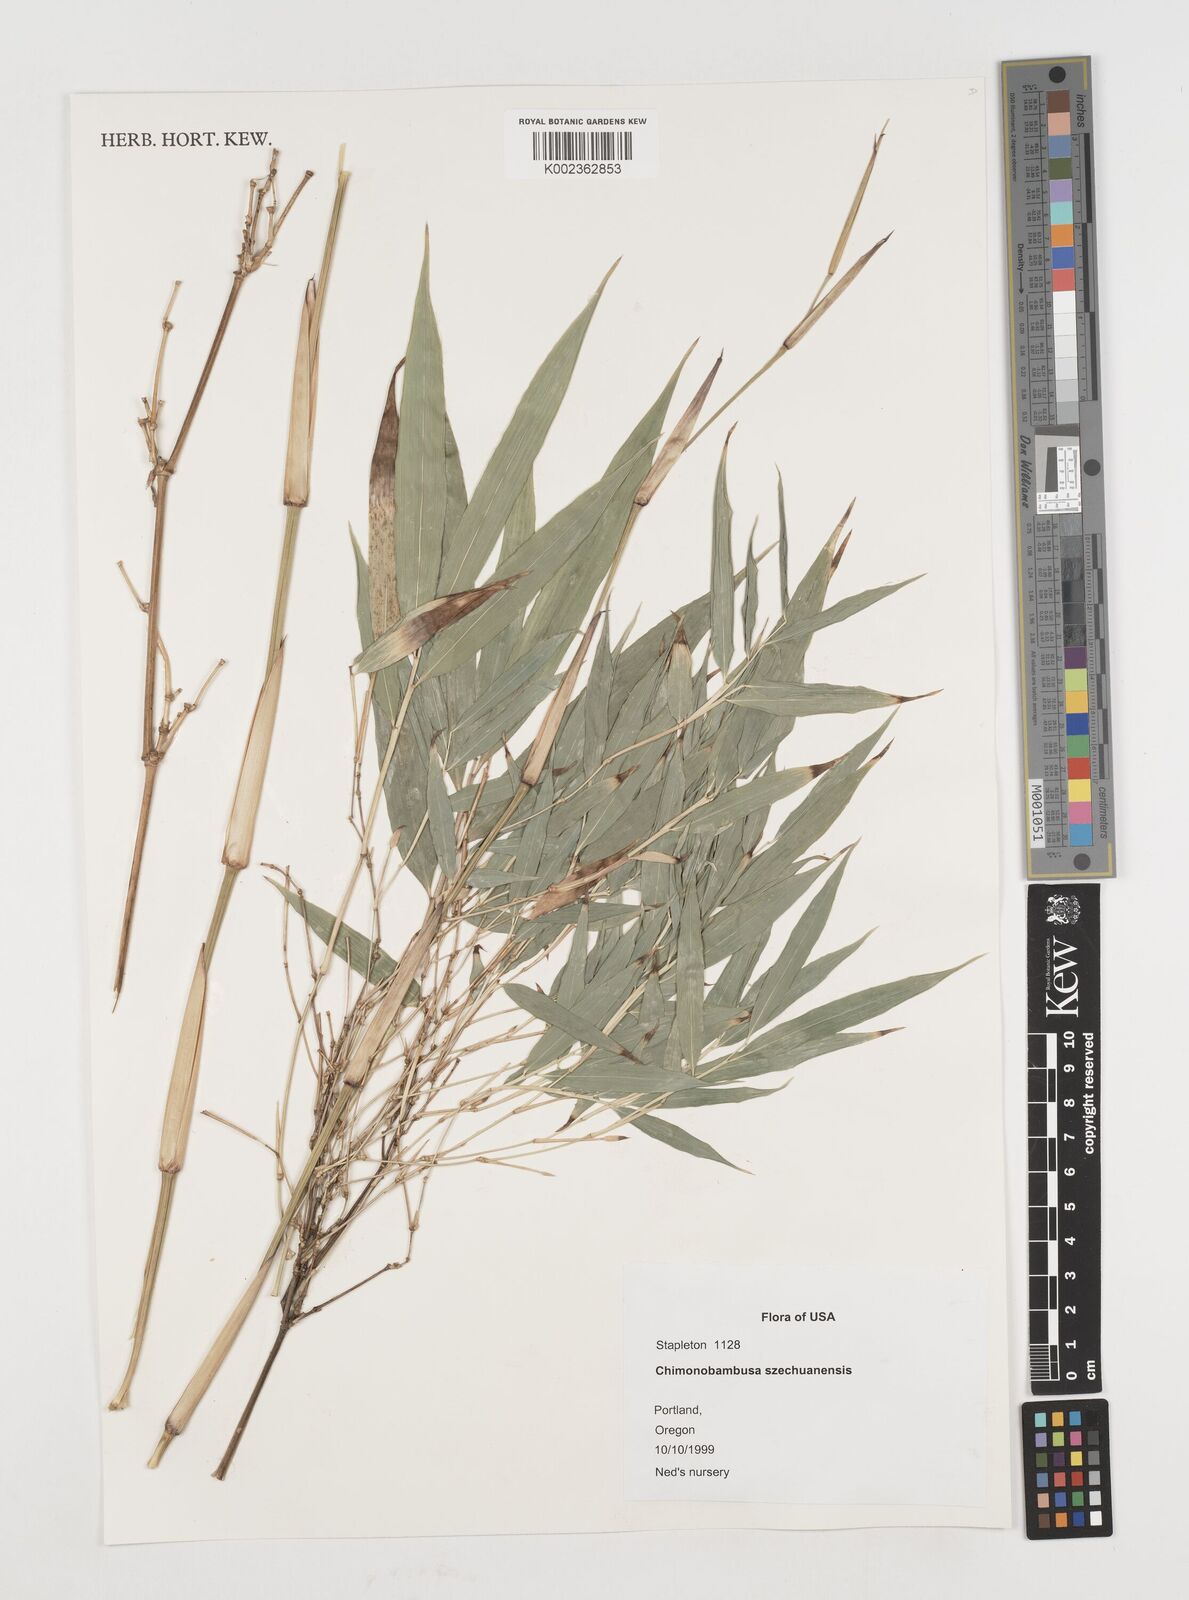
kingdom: Plantae
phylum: Tracheophyta
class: Liliopsida
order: Poales
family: Poaceae
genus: Chimonobambusa
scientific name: Chimonobambusa szechuanensis
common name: Sichuan square bamboo
